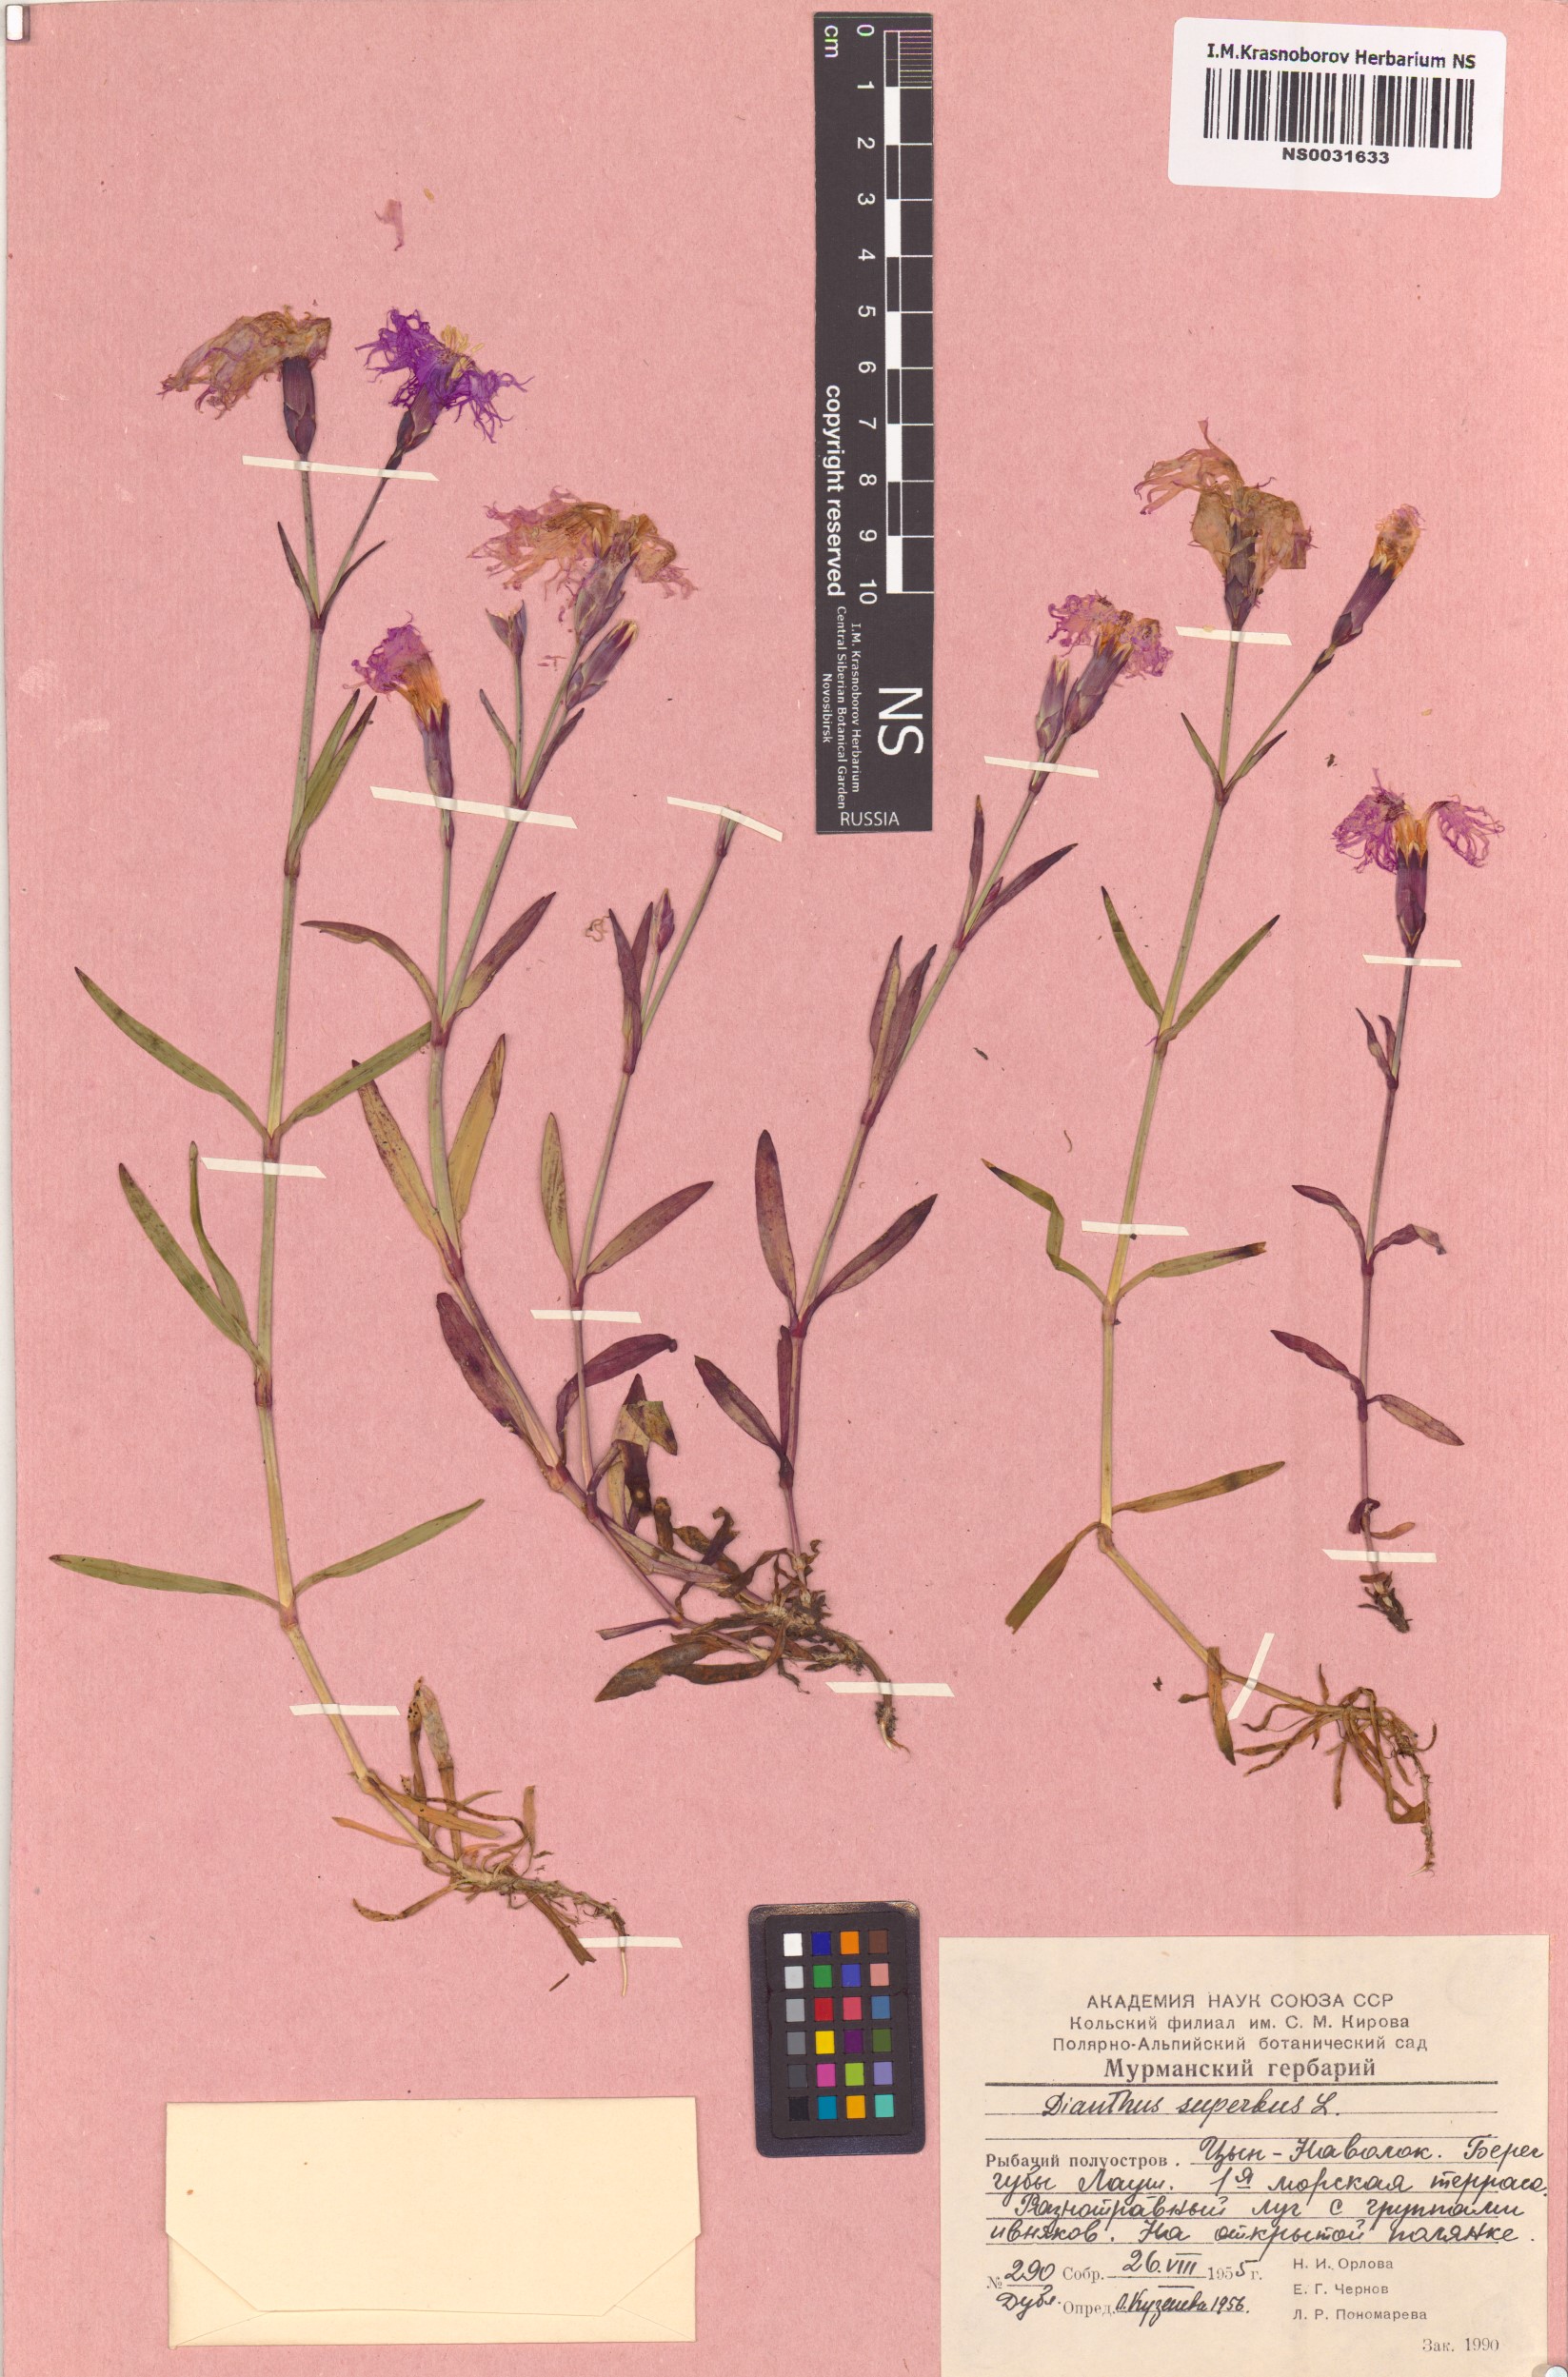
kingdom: Plantae
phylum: Tracheophyta
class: Magnoliopsida
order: Caryophyllales
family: Caryophyllaceae
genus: Dianthus
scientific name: Dianthus superbus
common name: Fringed pink
